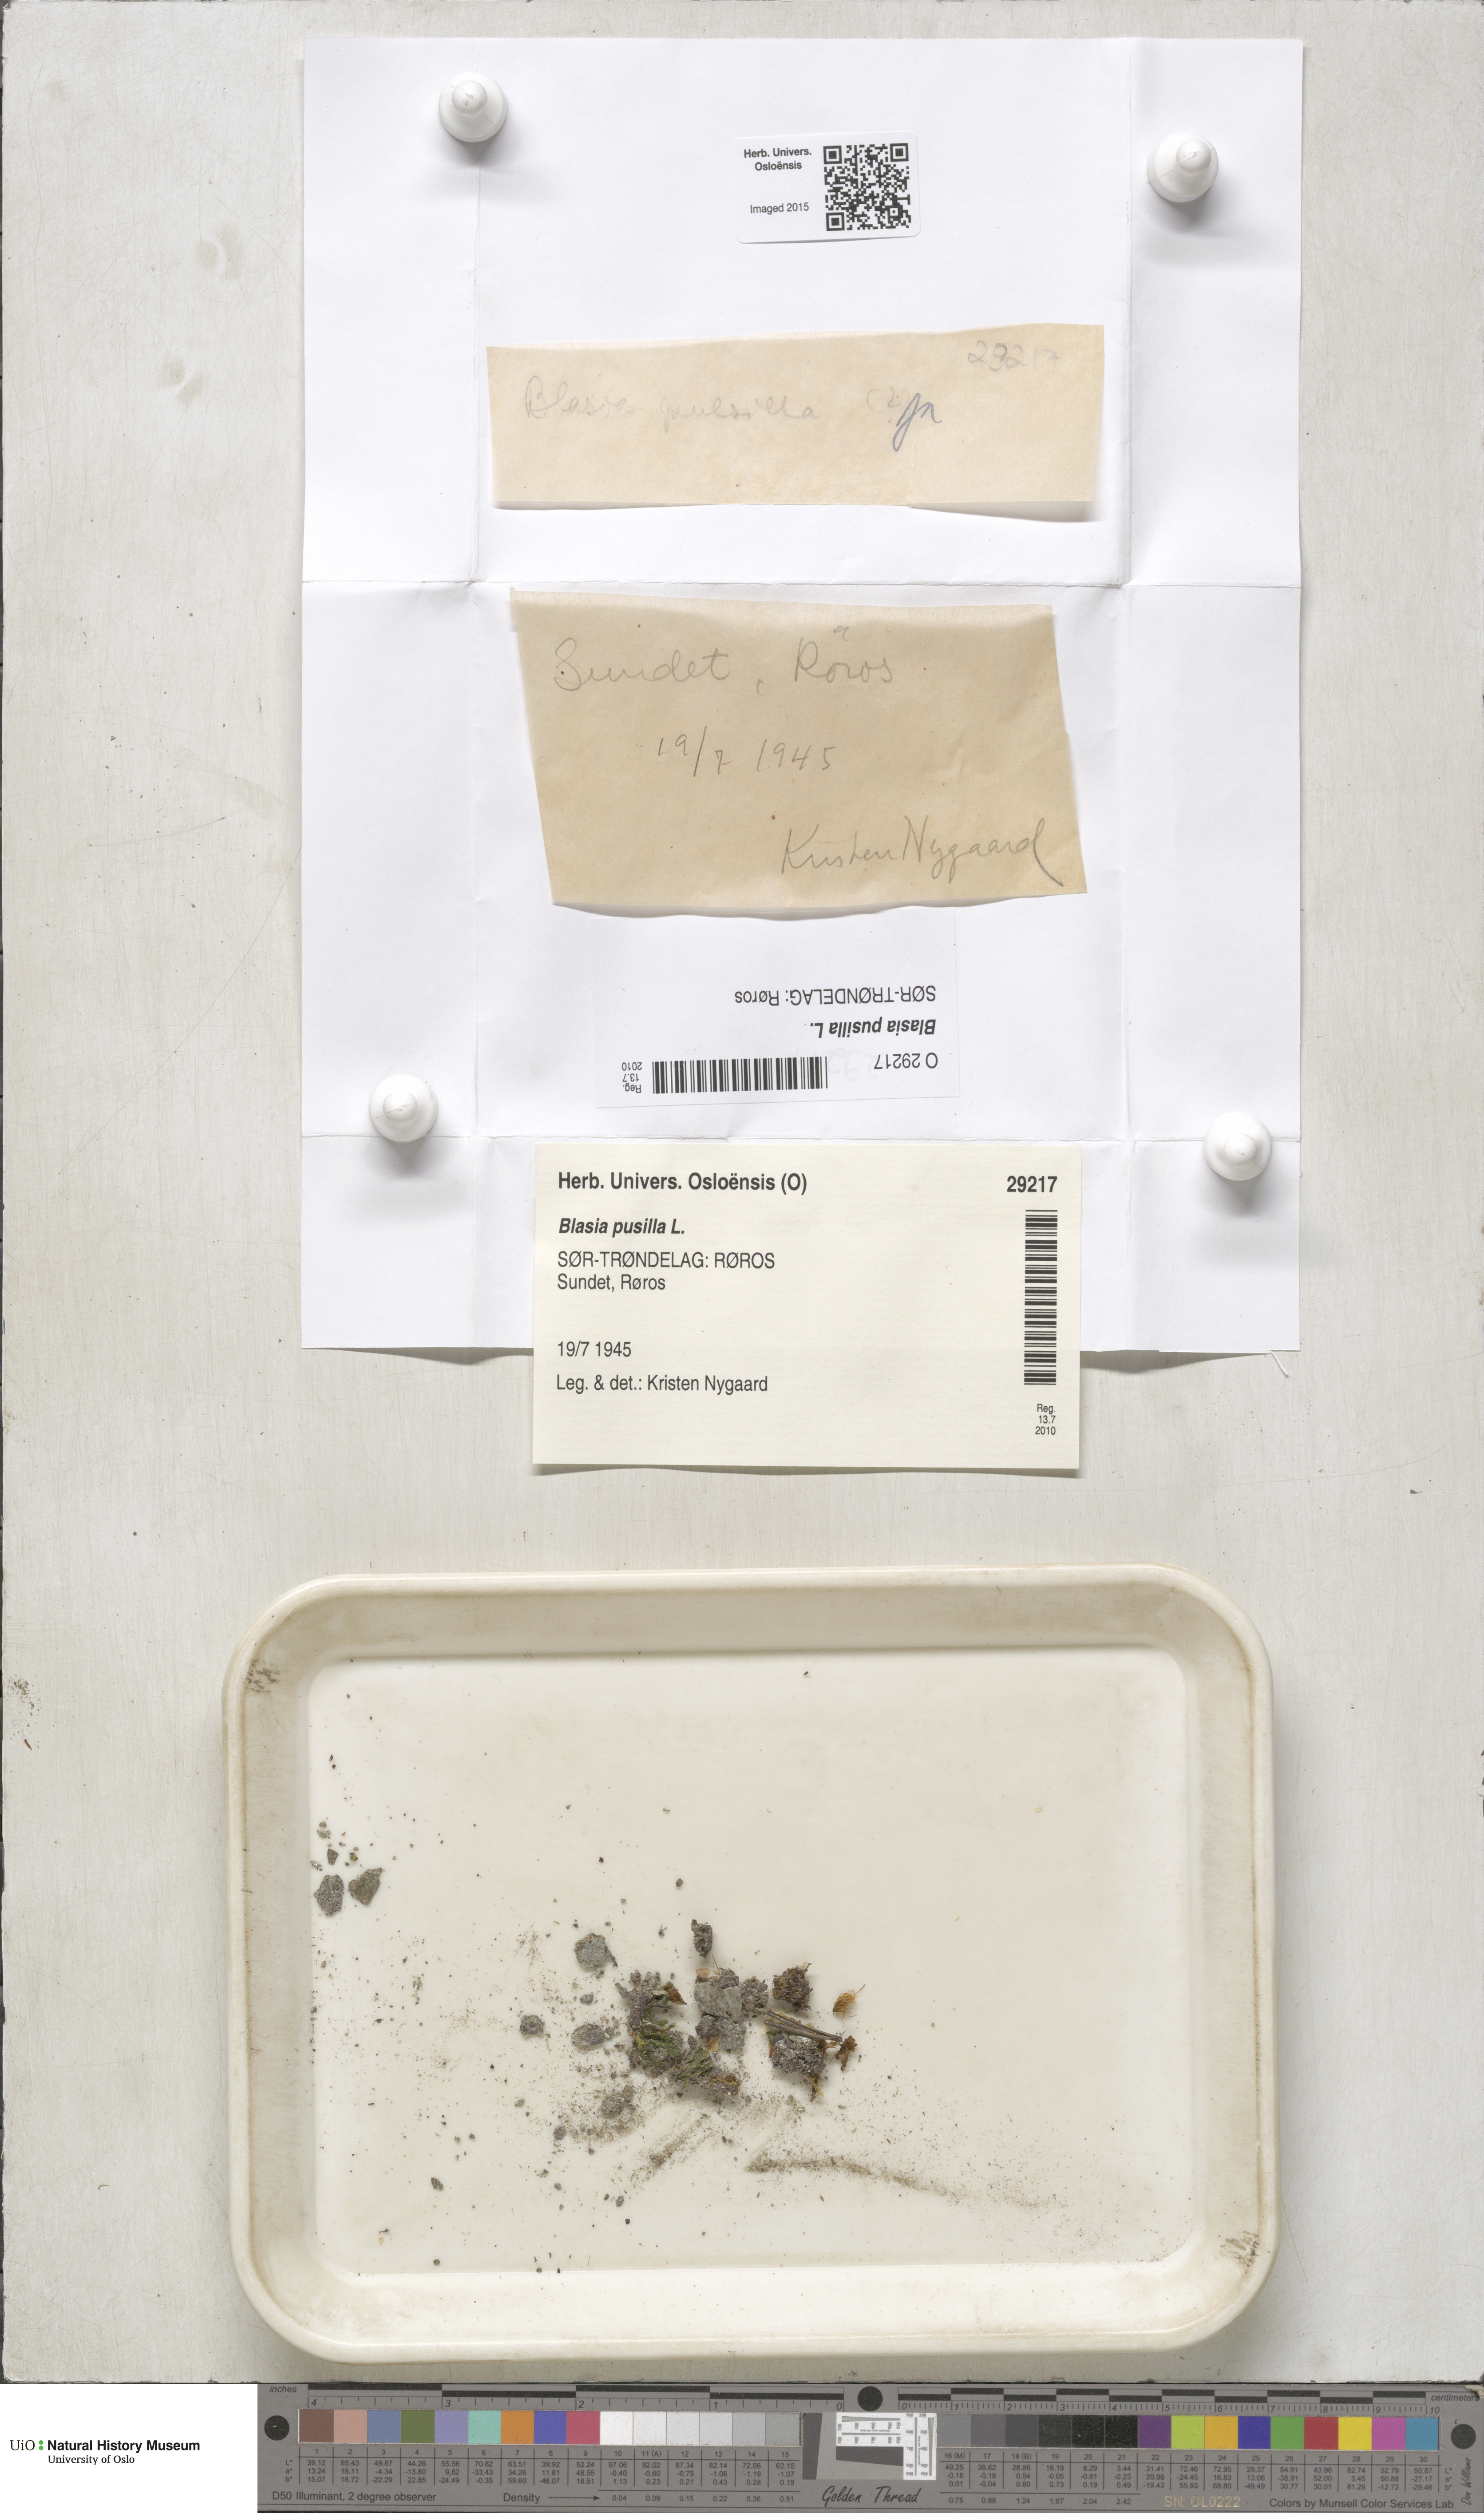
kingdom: Plantae
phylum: Marchantiophyta
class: Marchantiopsida
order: Blasiales
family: Blasiaceae
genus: Blasia
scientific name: Blasia pusilla
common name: Common kettlewort
